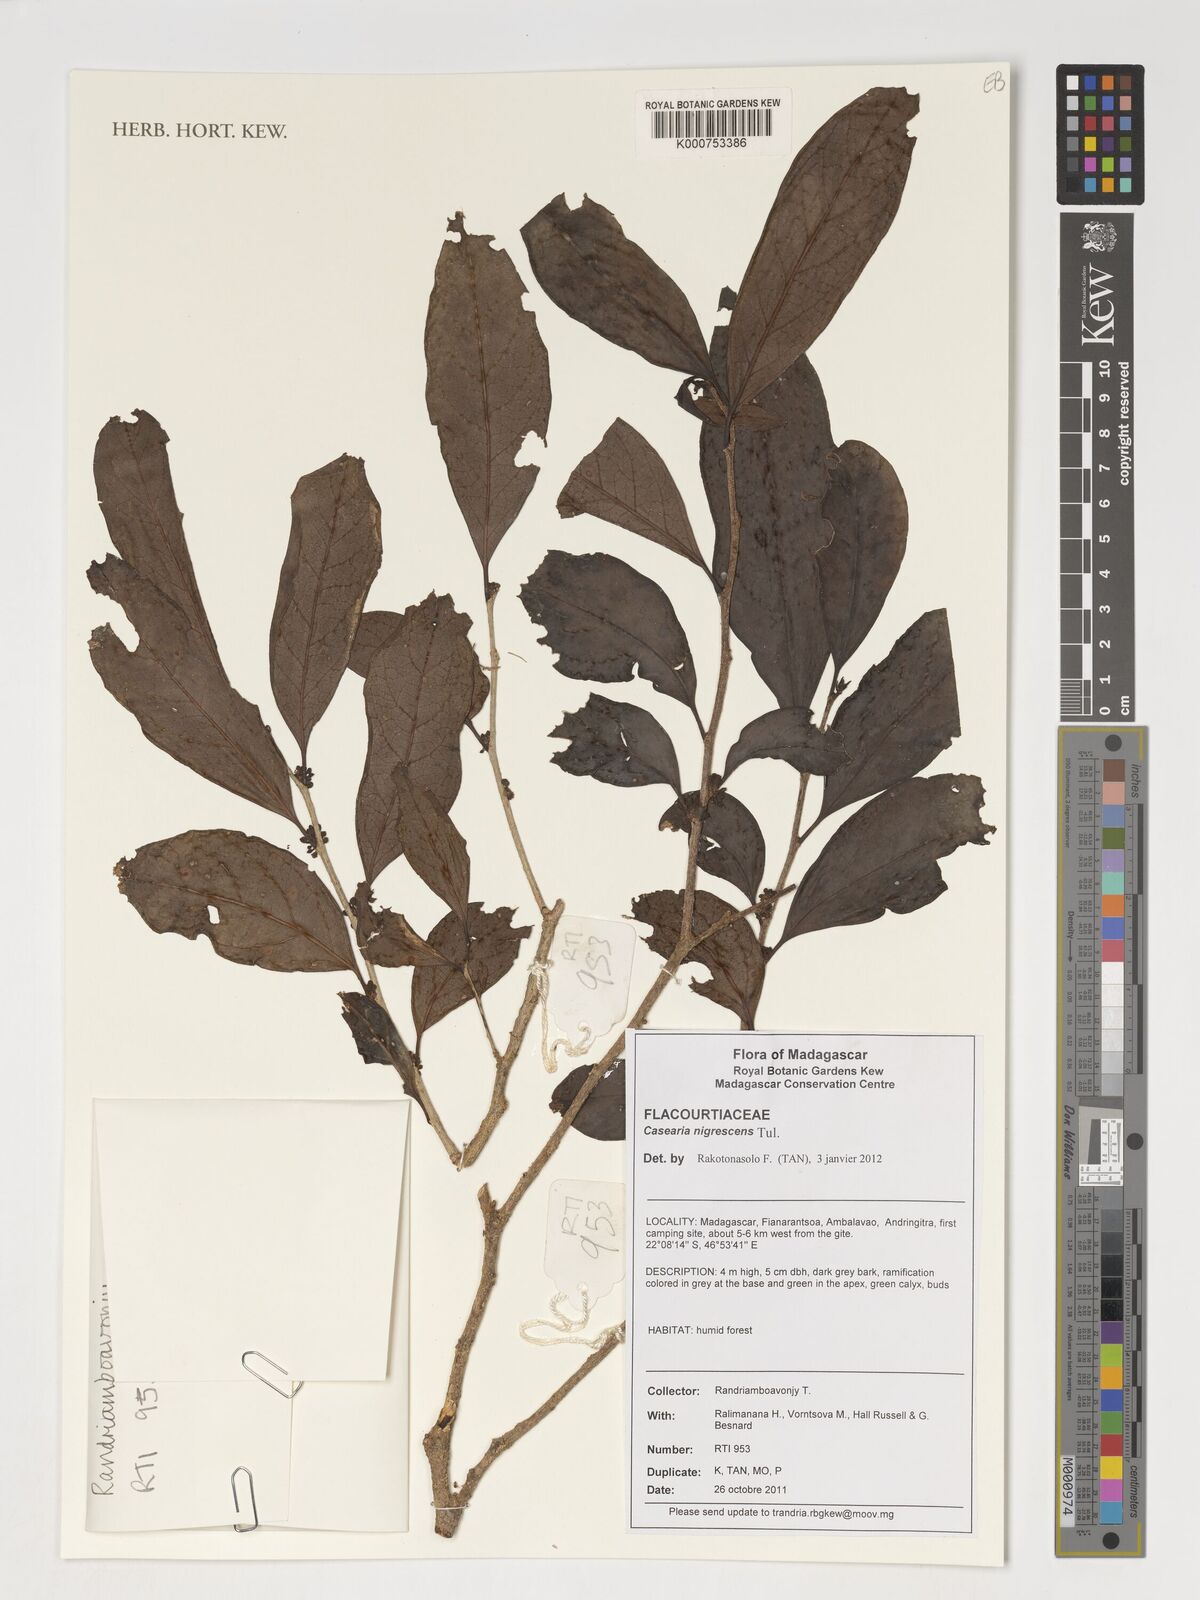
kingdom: Plantae
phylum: Tracheophyta
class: Magnoliopsida
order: Malpighiales
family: Salicaceae
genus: Casearia
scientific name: Casearia nigrescens
